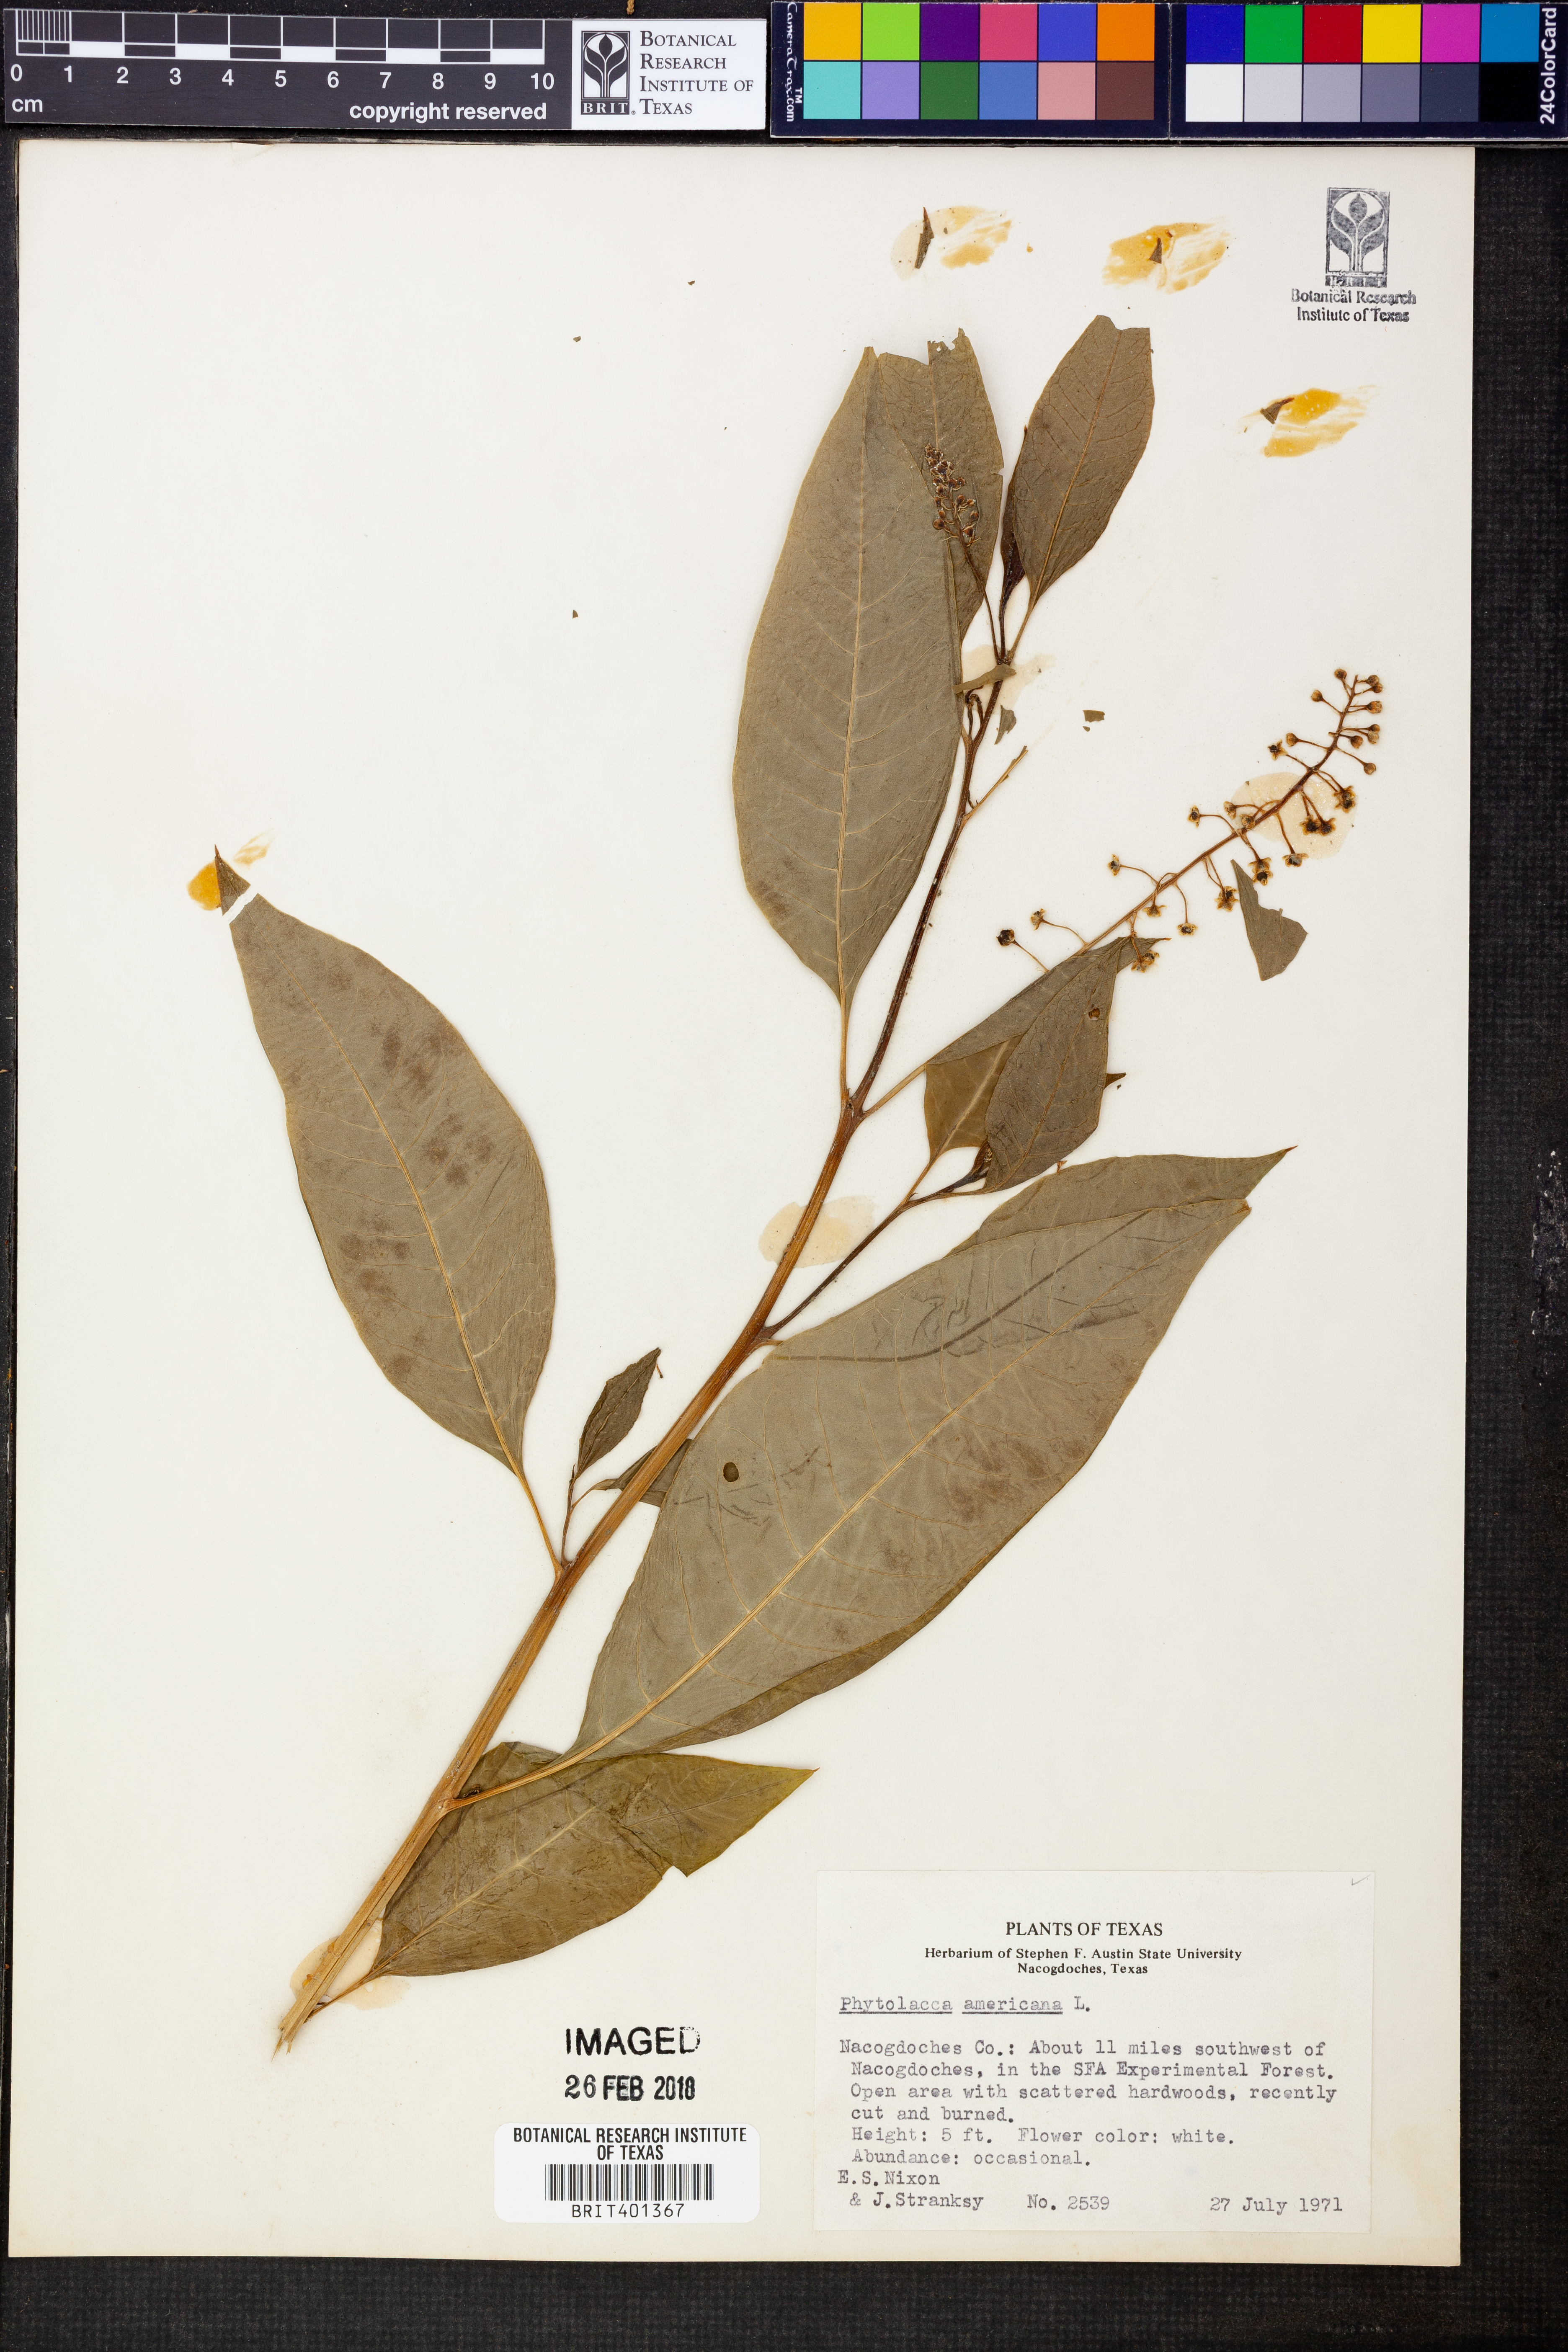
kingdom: Plantae
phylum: Tracheophyta
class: Magnoliopsida
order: Caryophyllales
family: Phytolaccaceae
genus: Phytolacca
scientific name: Phytolacca americana
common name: American pokeweed
